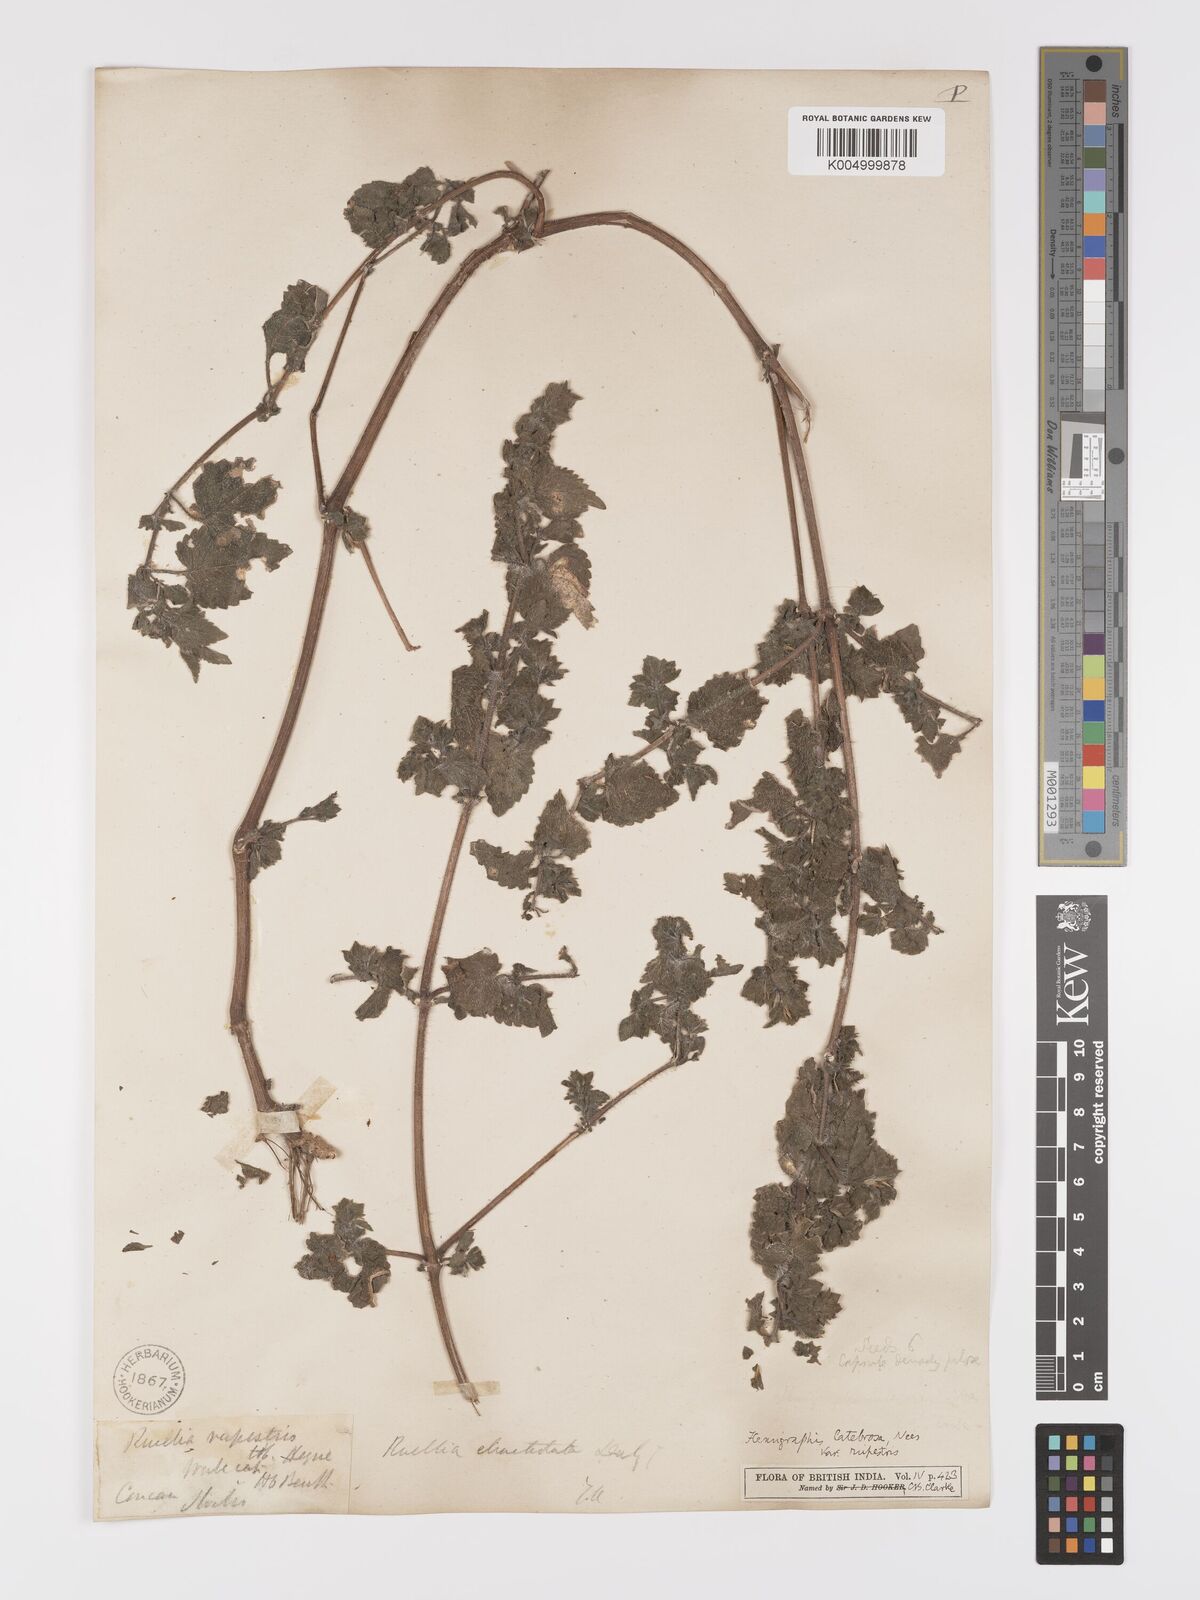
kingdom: Plantae
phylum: Tracheophyta
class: Magnoliopsida
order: Lamiales
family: Acanthaceae
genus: Strobilanthes
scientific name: Strobilanthes pavala
